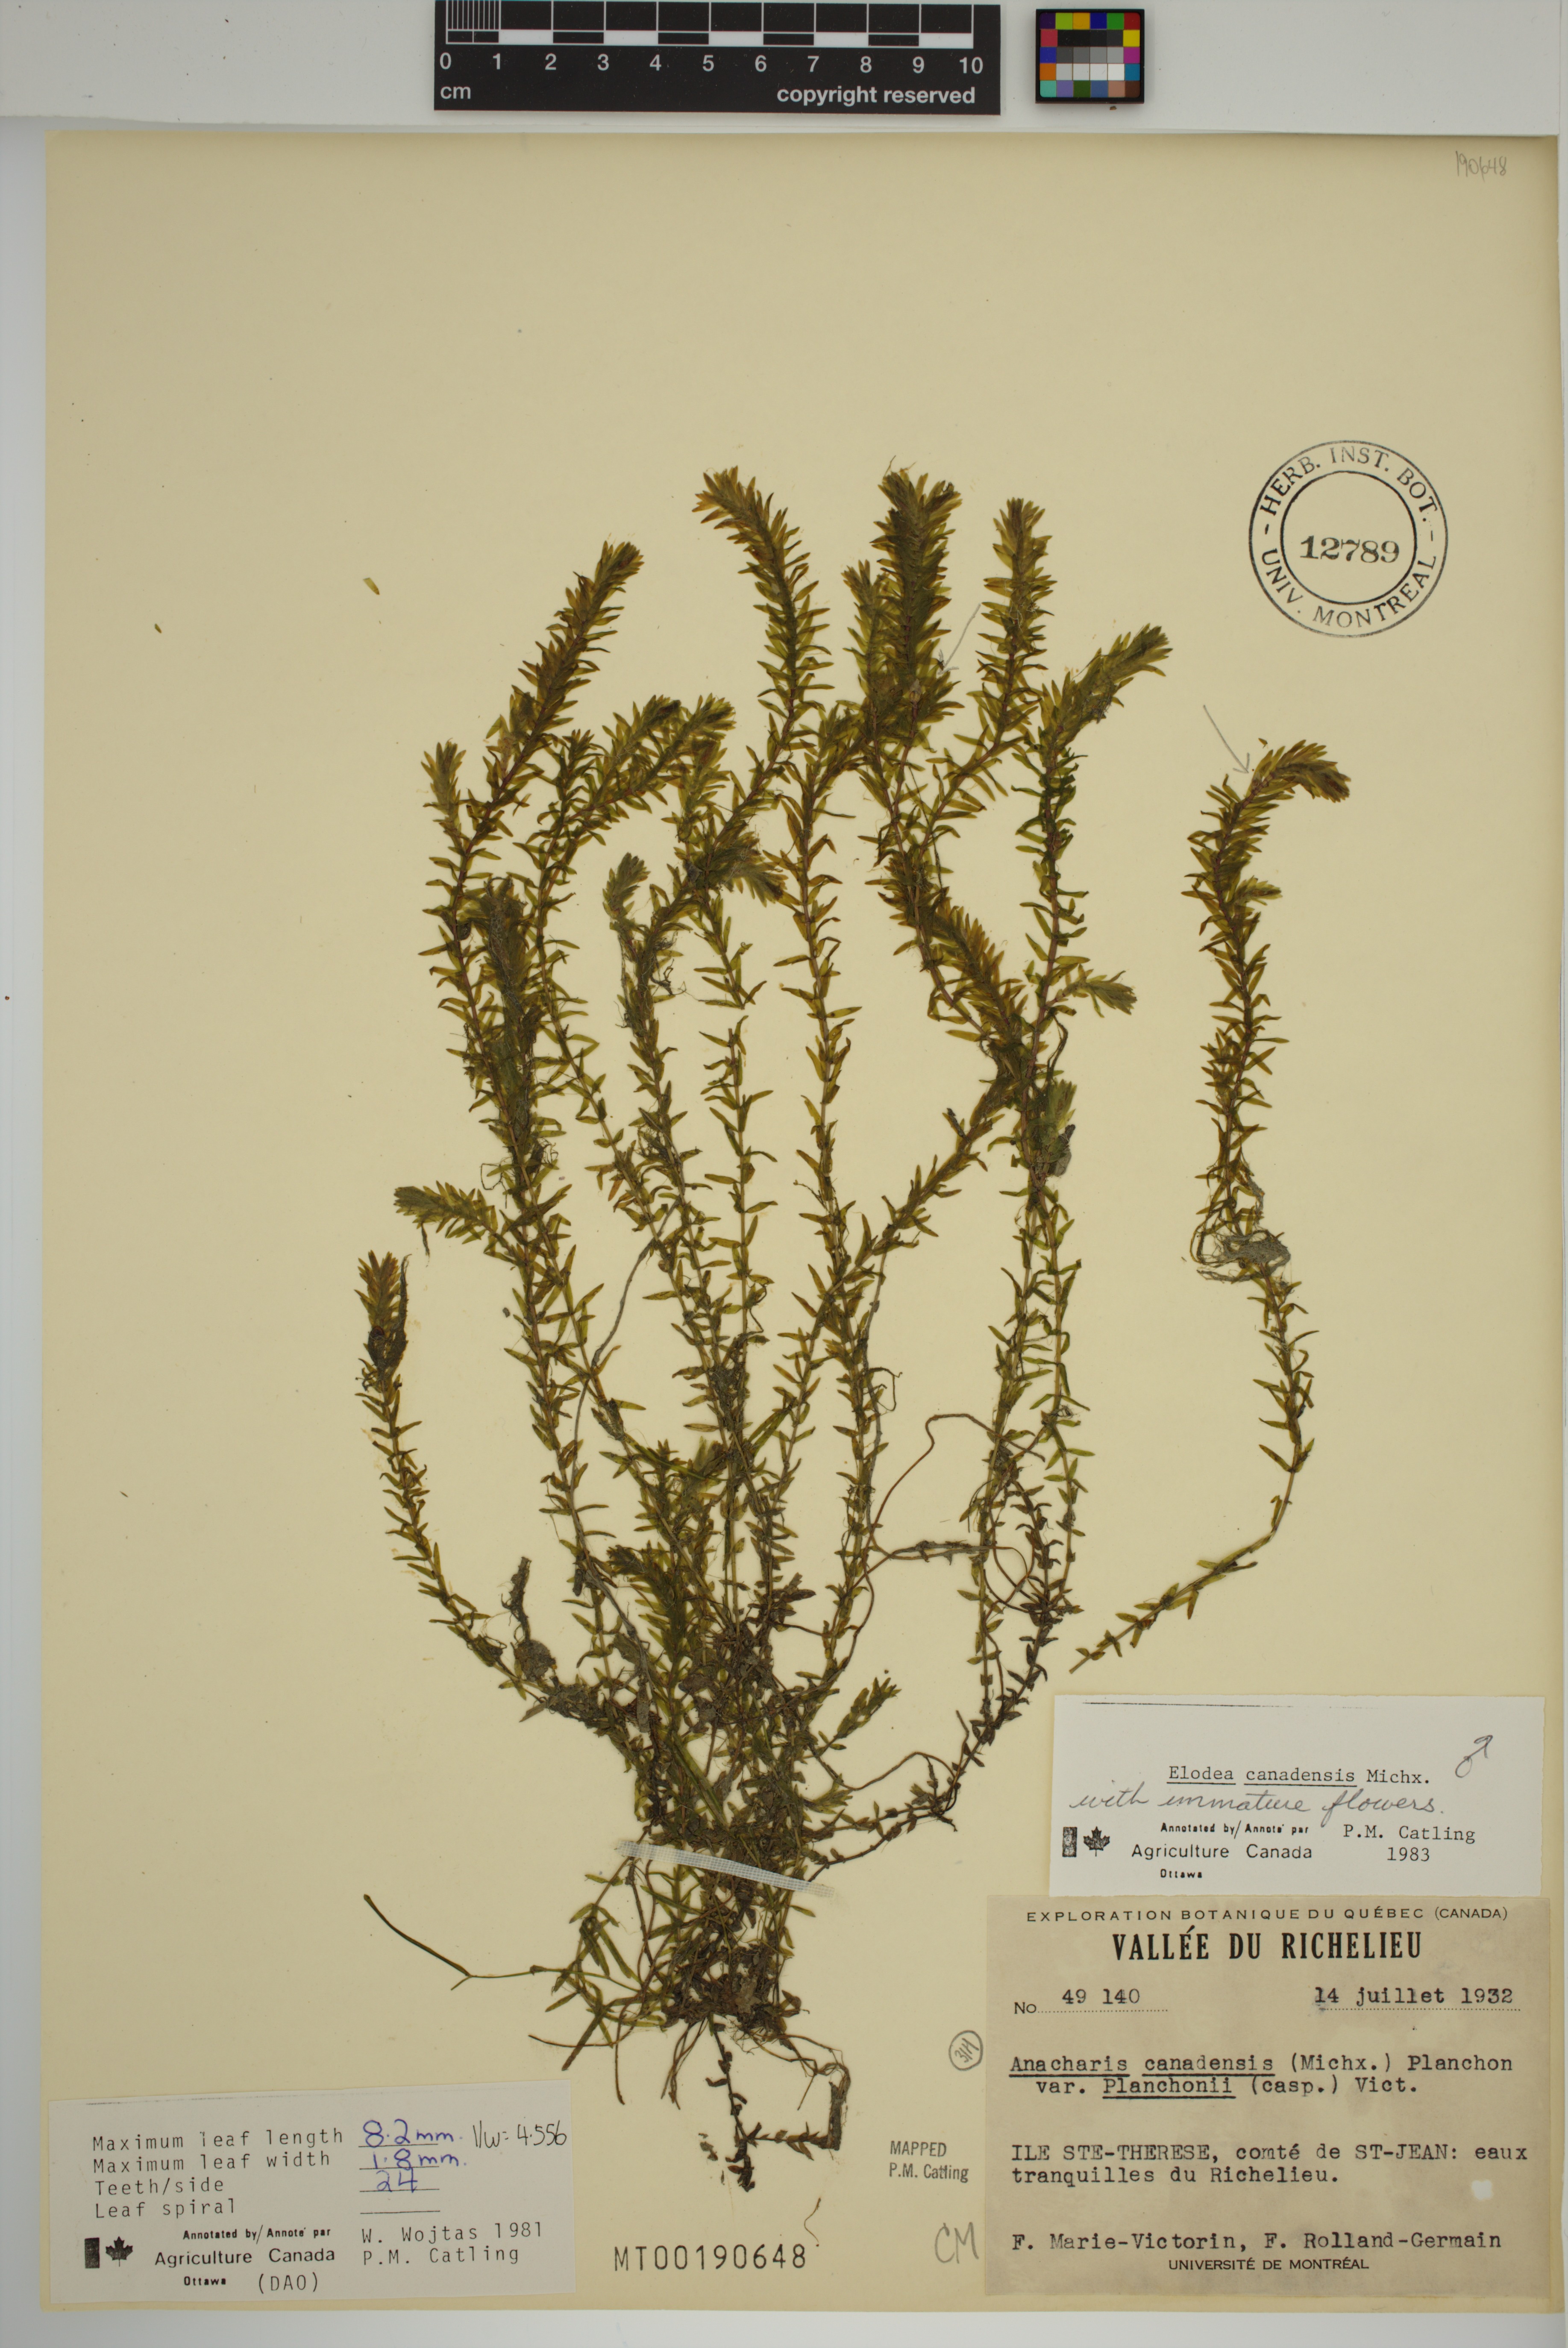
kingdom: Plantae
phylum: Tracheophyta
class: Liliopsida
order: Alismatales
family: Hydrocharitaceae
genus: Elodea
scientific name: Elodea canadensis
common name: Canadian waterweed
